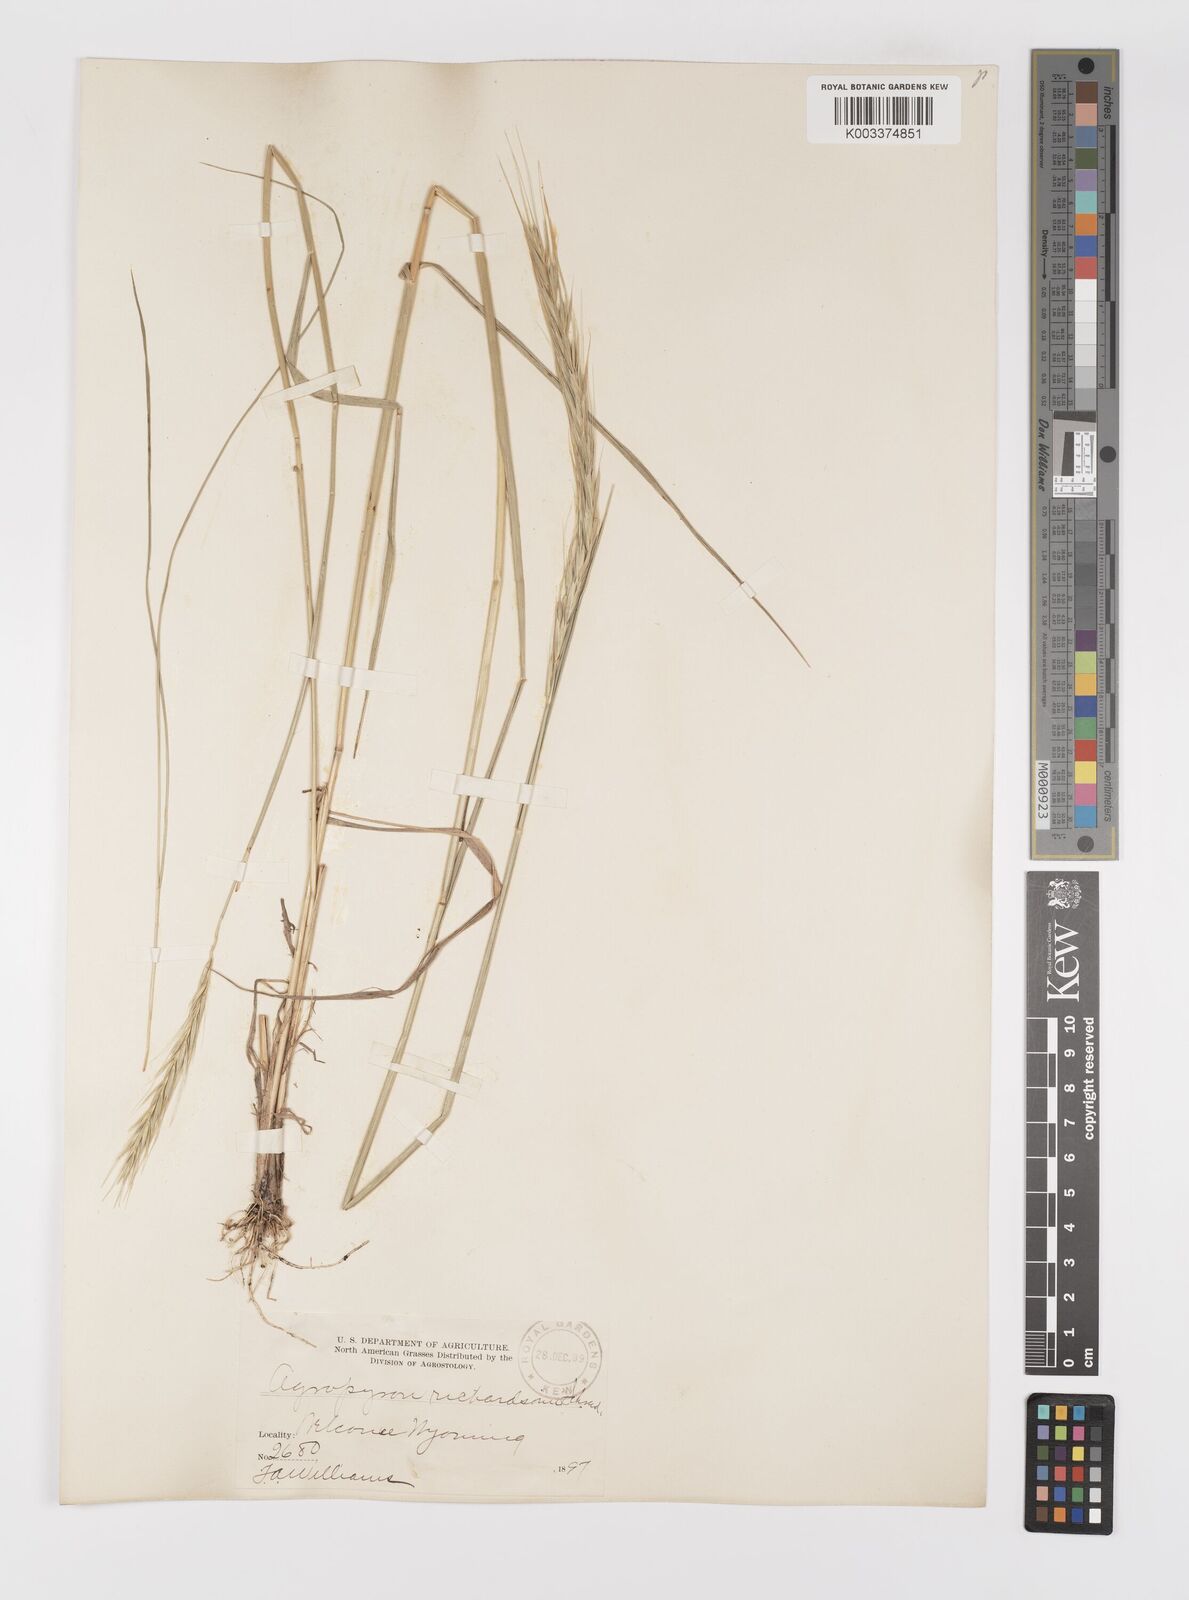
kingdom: Plantae
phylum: Tracheophyta
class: Liliopsida
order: Poales
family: Poaceae
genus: Elymus
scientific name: Elymus violaceus
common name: Arctic wheatgrass
